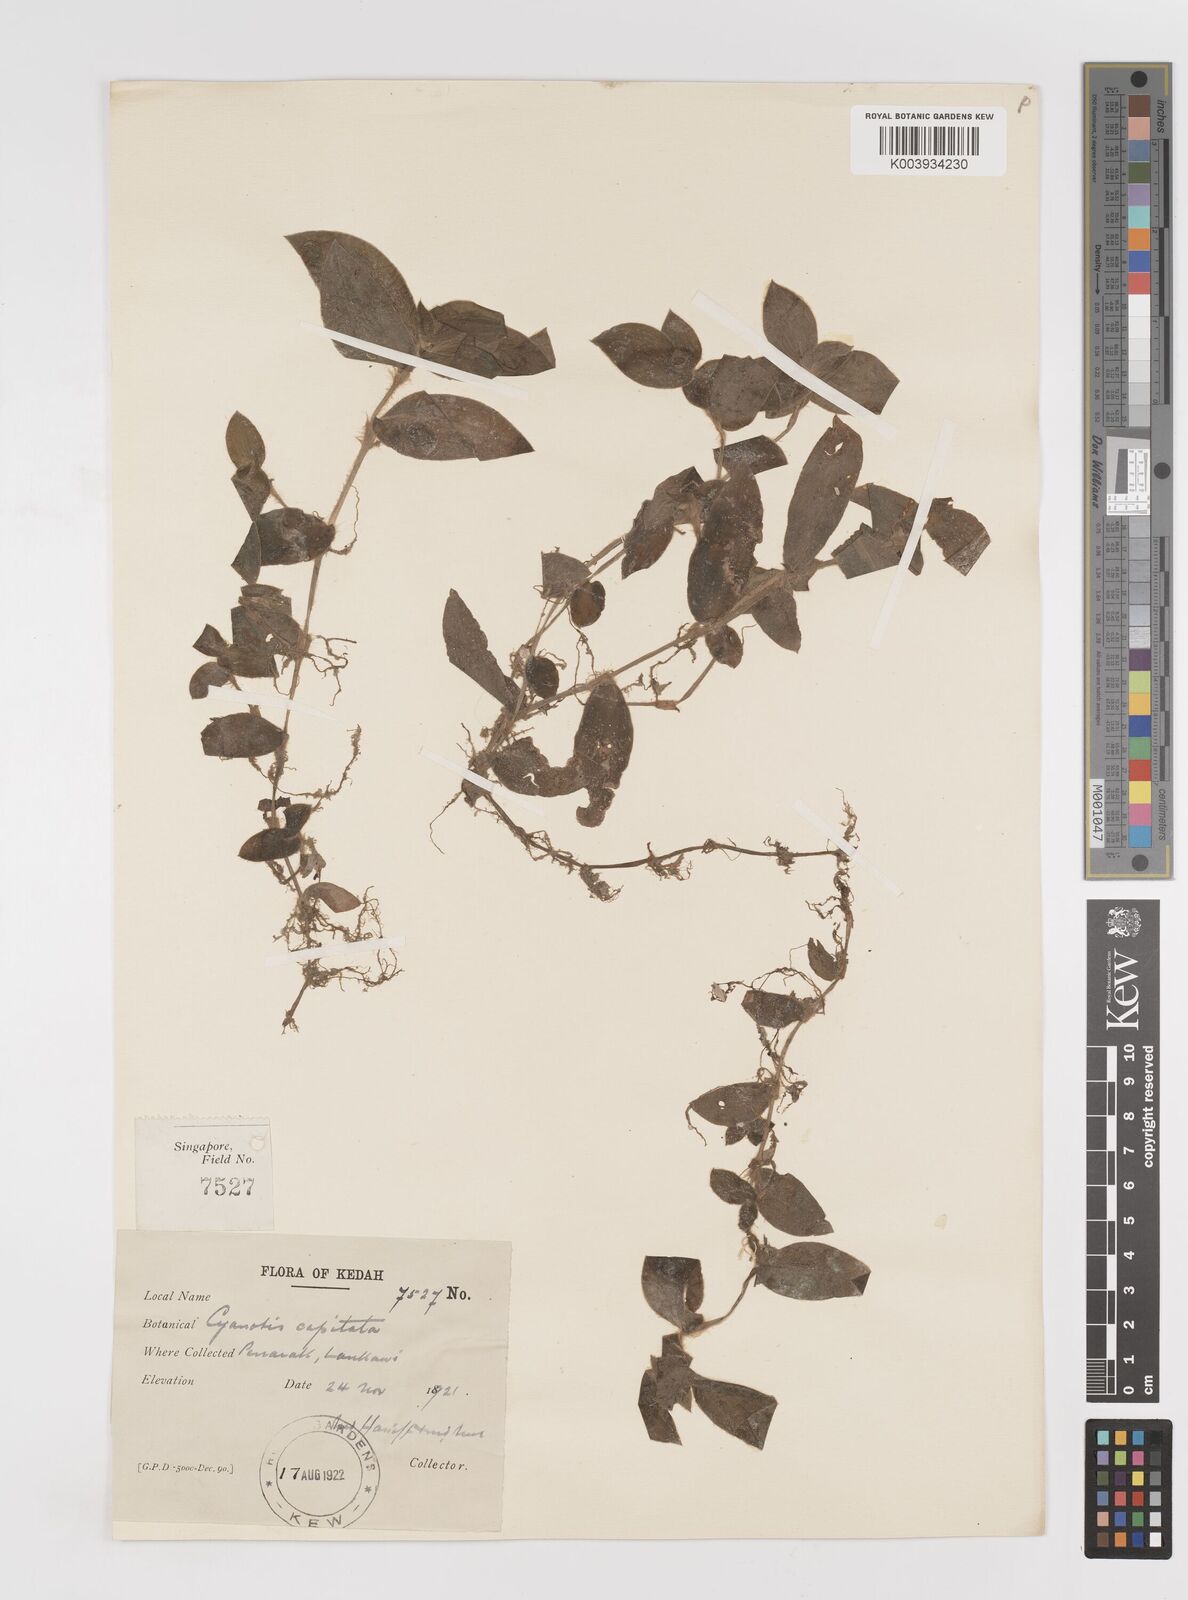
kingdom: Plantae
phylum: Tracheophyta
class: Liliopsida
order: Commelinales
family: Commelinaceae
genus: Cyanotis
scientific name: Cyanotis ciliata
